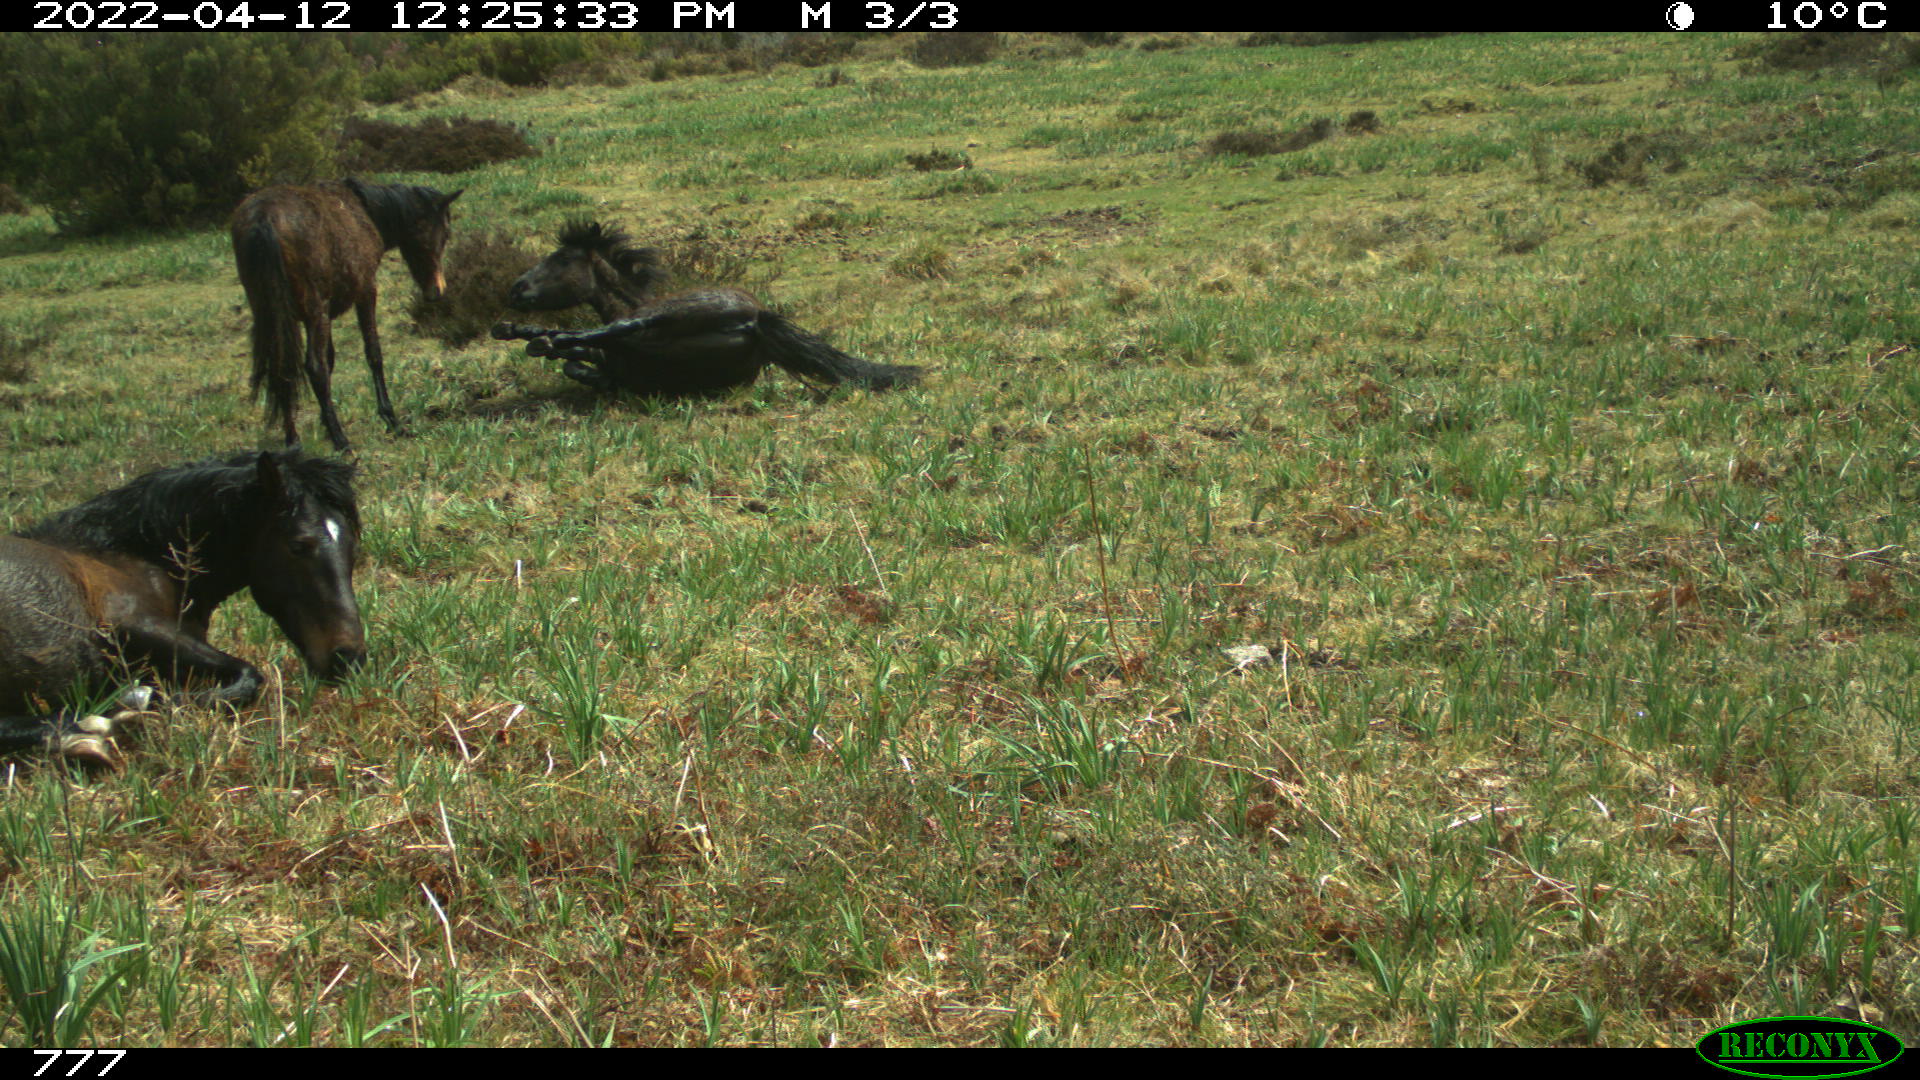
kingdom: Animalia
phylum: Chordata
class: Mammalia
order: Perissodactyla
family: Equidae
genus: Equus
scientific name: Equus caballus
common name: Horse
